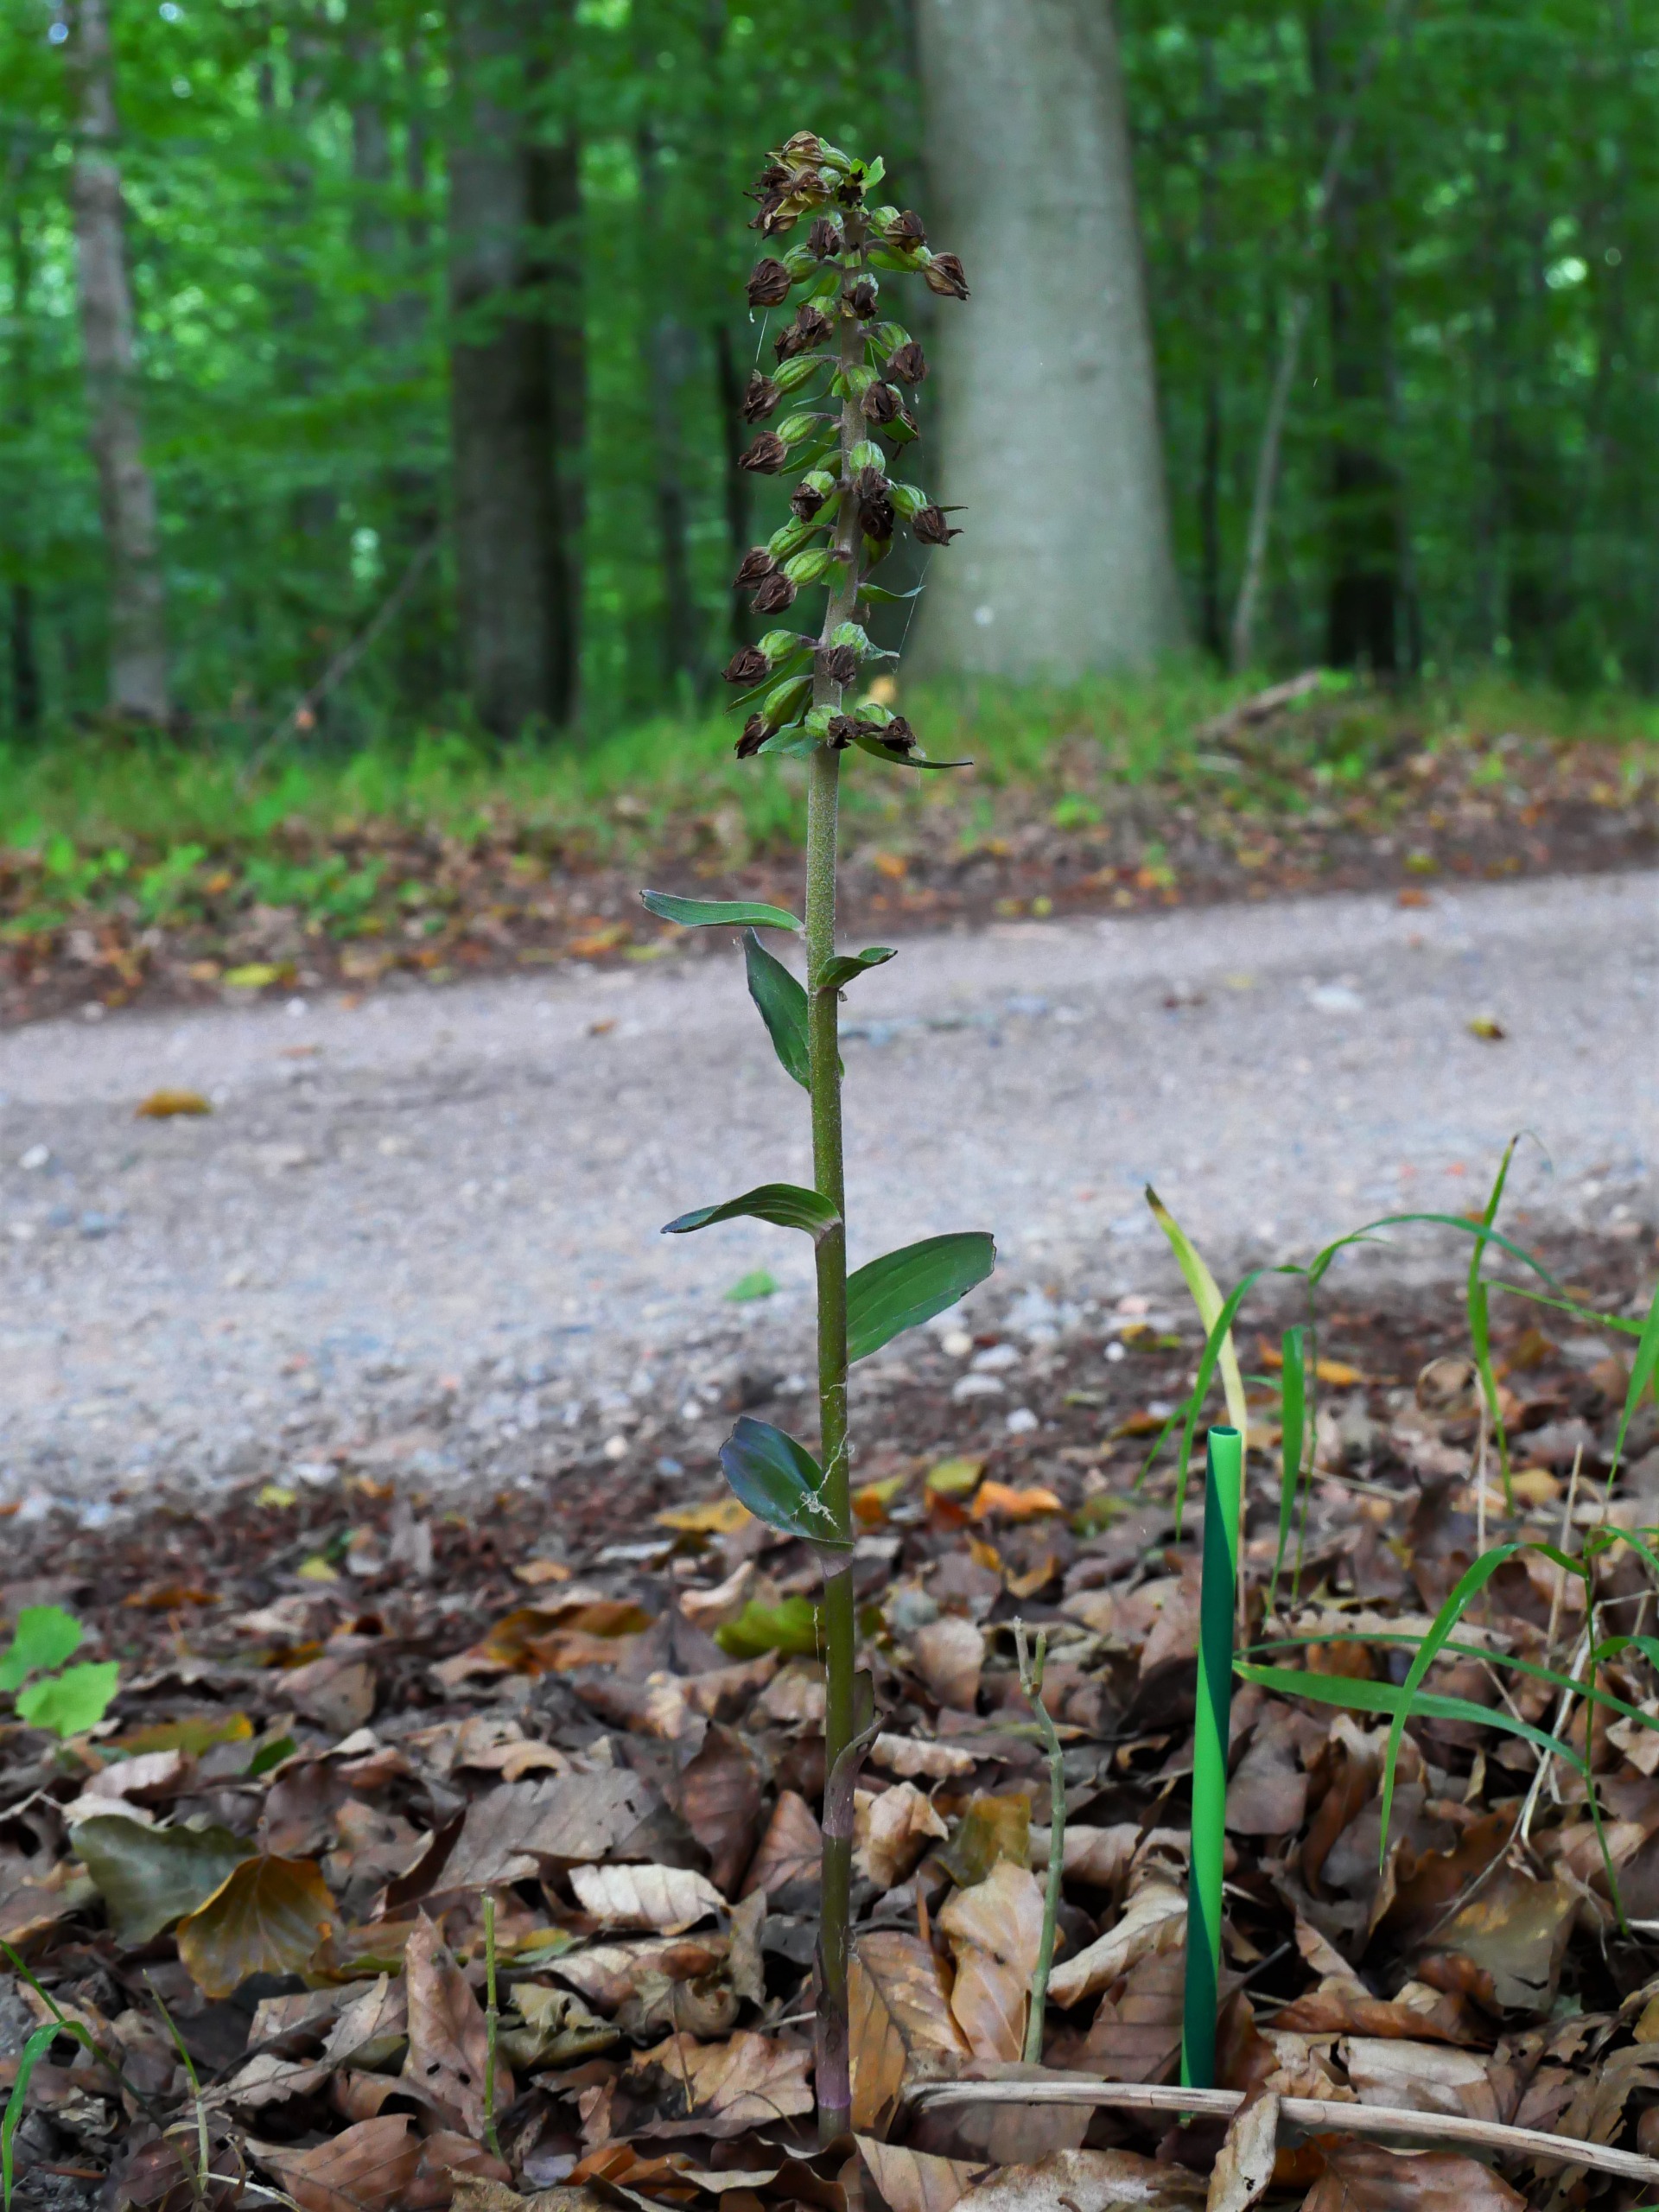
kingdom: Plantae
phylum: Tracheophyta
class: Liliopsida
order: Asparagales
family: Orchidaceae
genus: Epipactis
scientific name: Epipactis purpurata
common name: Tætblomstret hullæbe
